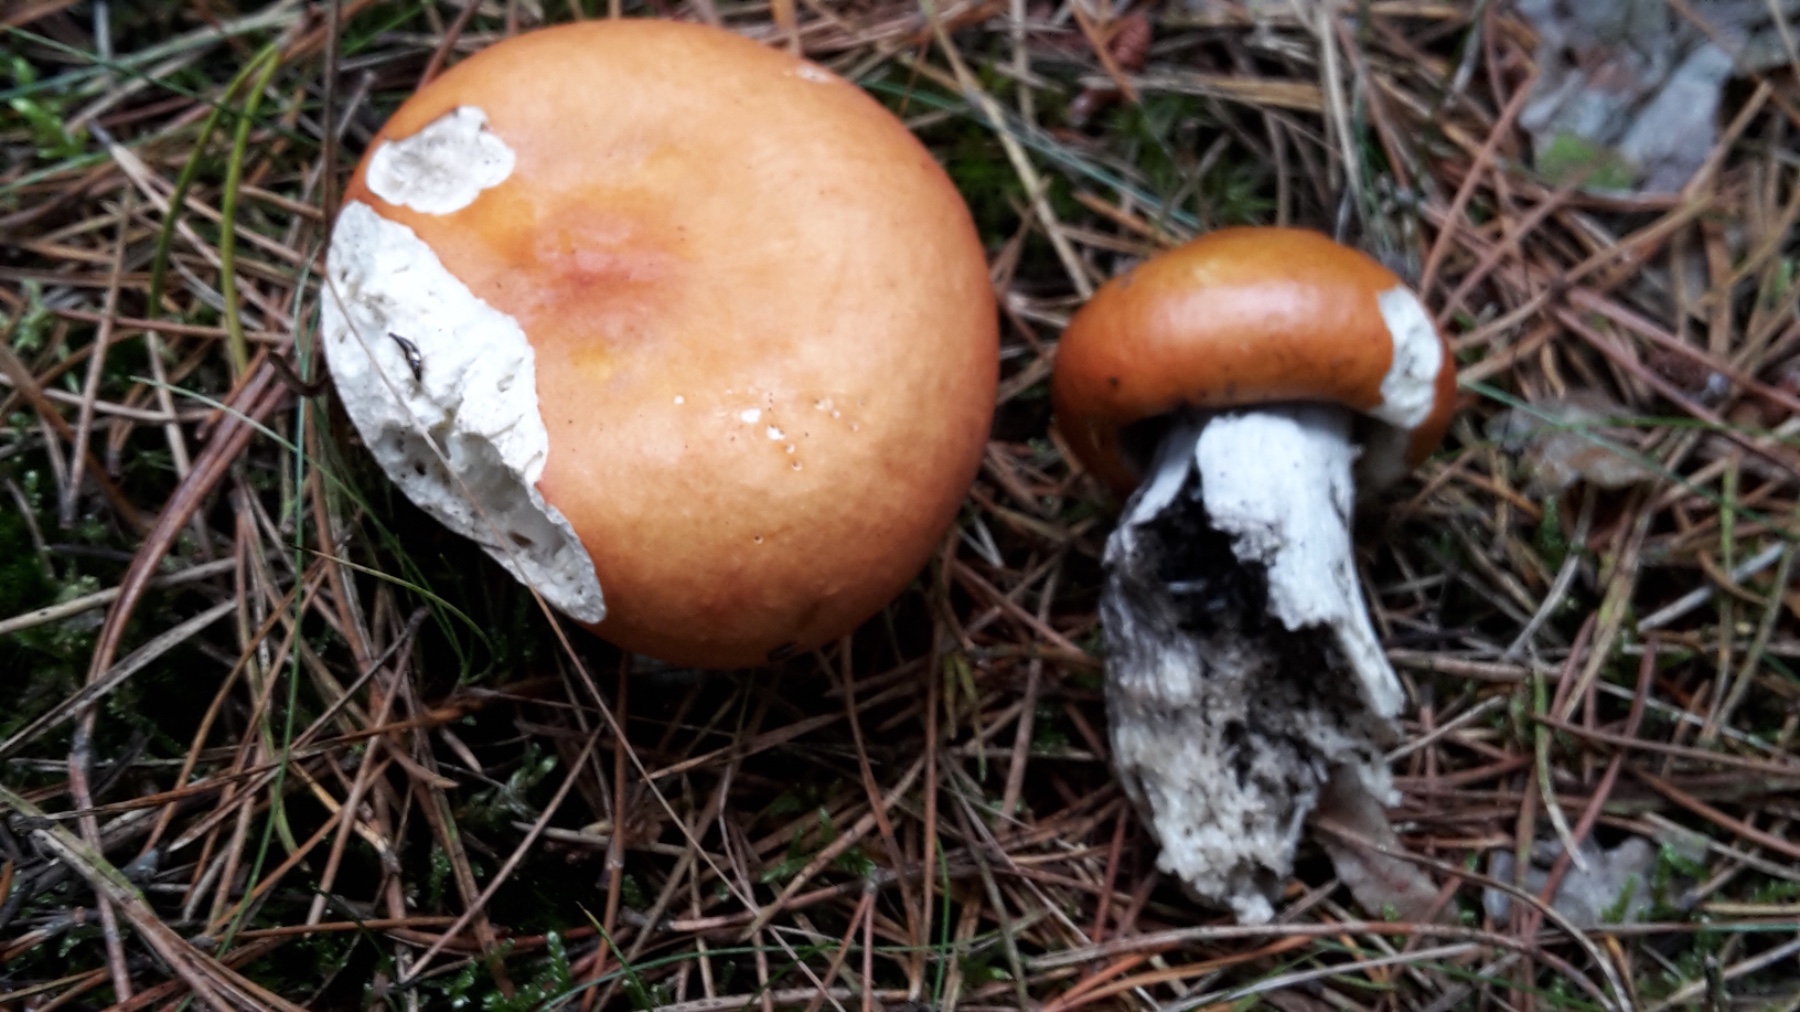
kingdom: Fungi
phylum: Basidiomycota
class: Agaricomycetes
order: Russulales
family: Russulaceae
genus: Russula
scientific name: Russula decolorans
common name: afblegende skørhat
